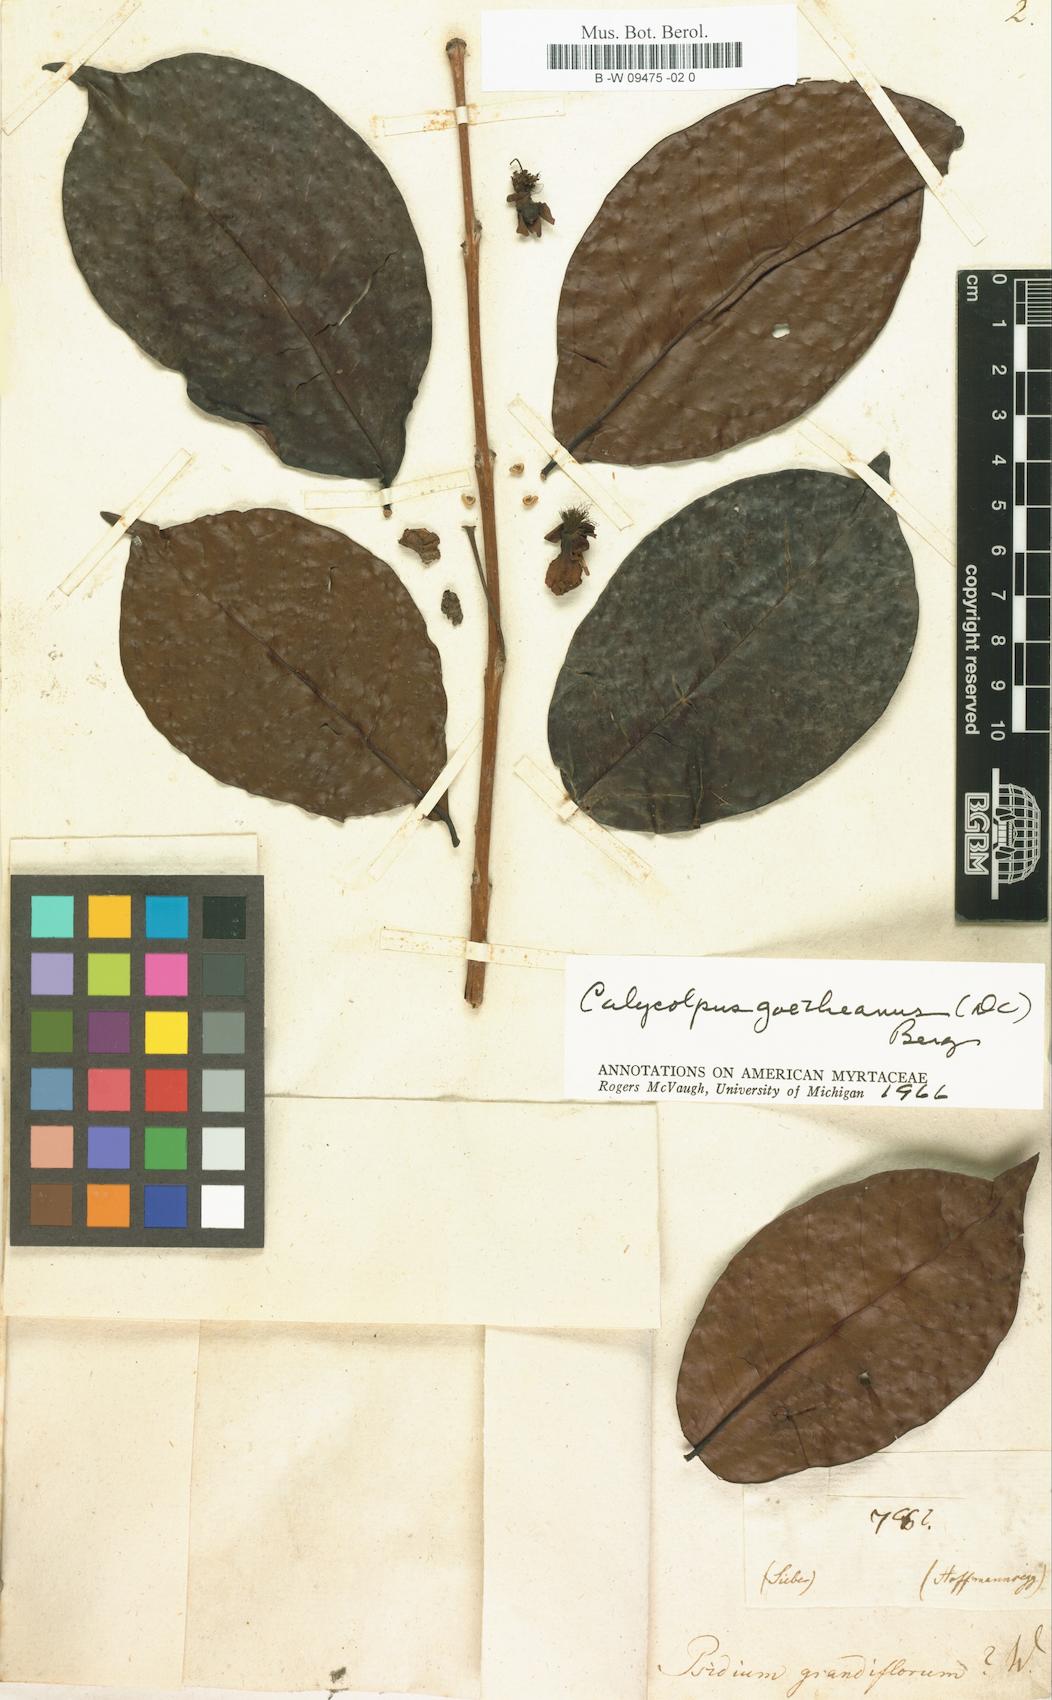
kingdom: Plantae
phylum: Tracheophyta
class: Magnoliopsida
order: Myrtales
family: Myrtaceae
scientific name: Myrtaceae
